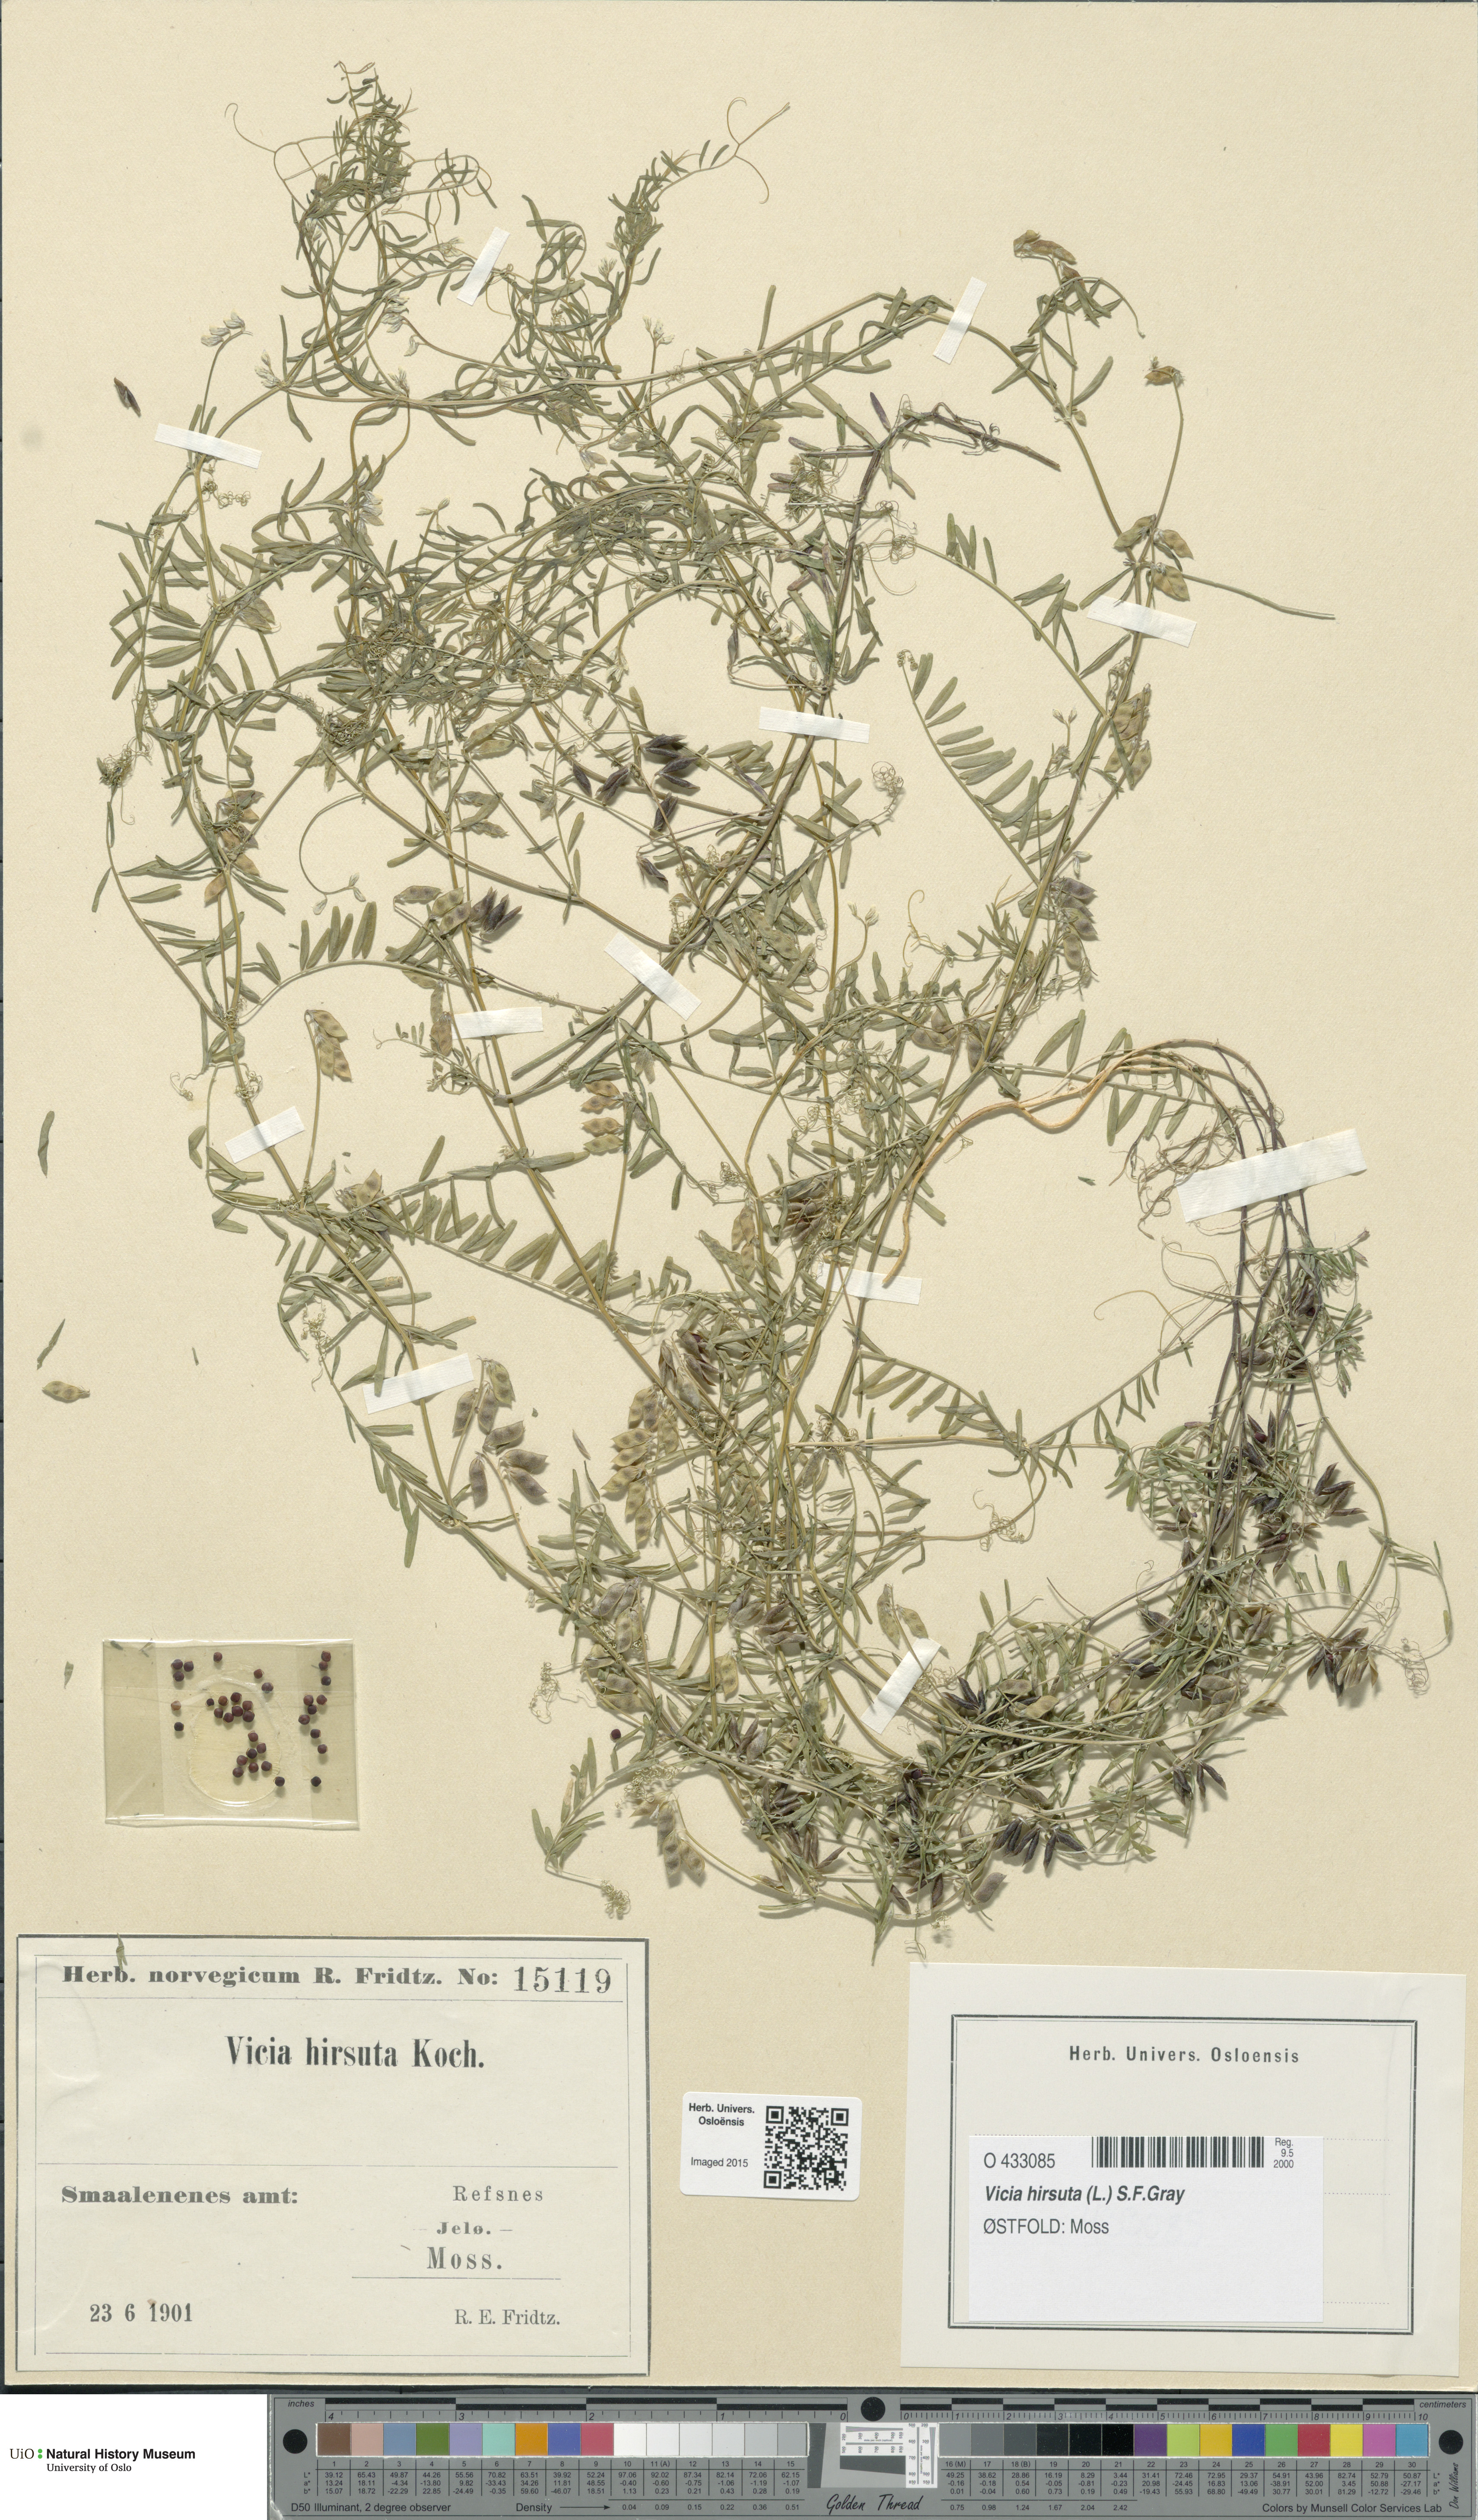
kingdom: Plantae
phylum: Tracheophyta
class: Magnoliopsida
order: Fabales
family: Fabaceae
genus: Vicia
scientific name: Vicia hirsuta
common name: Tiny vetch
